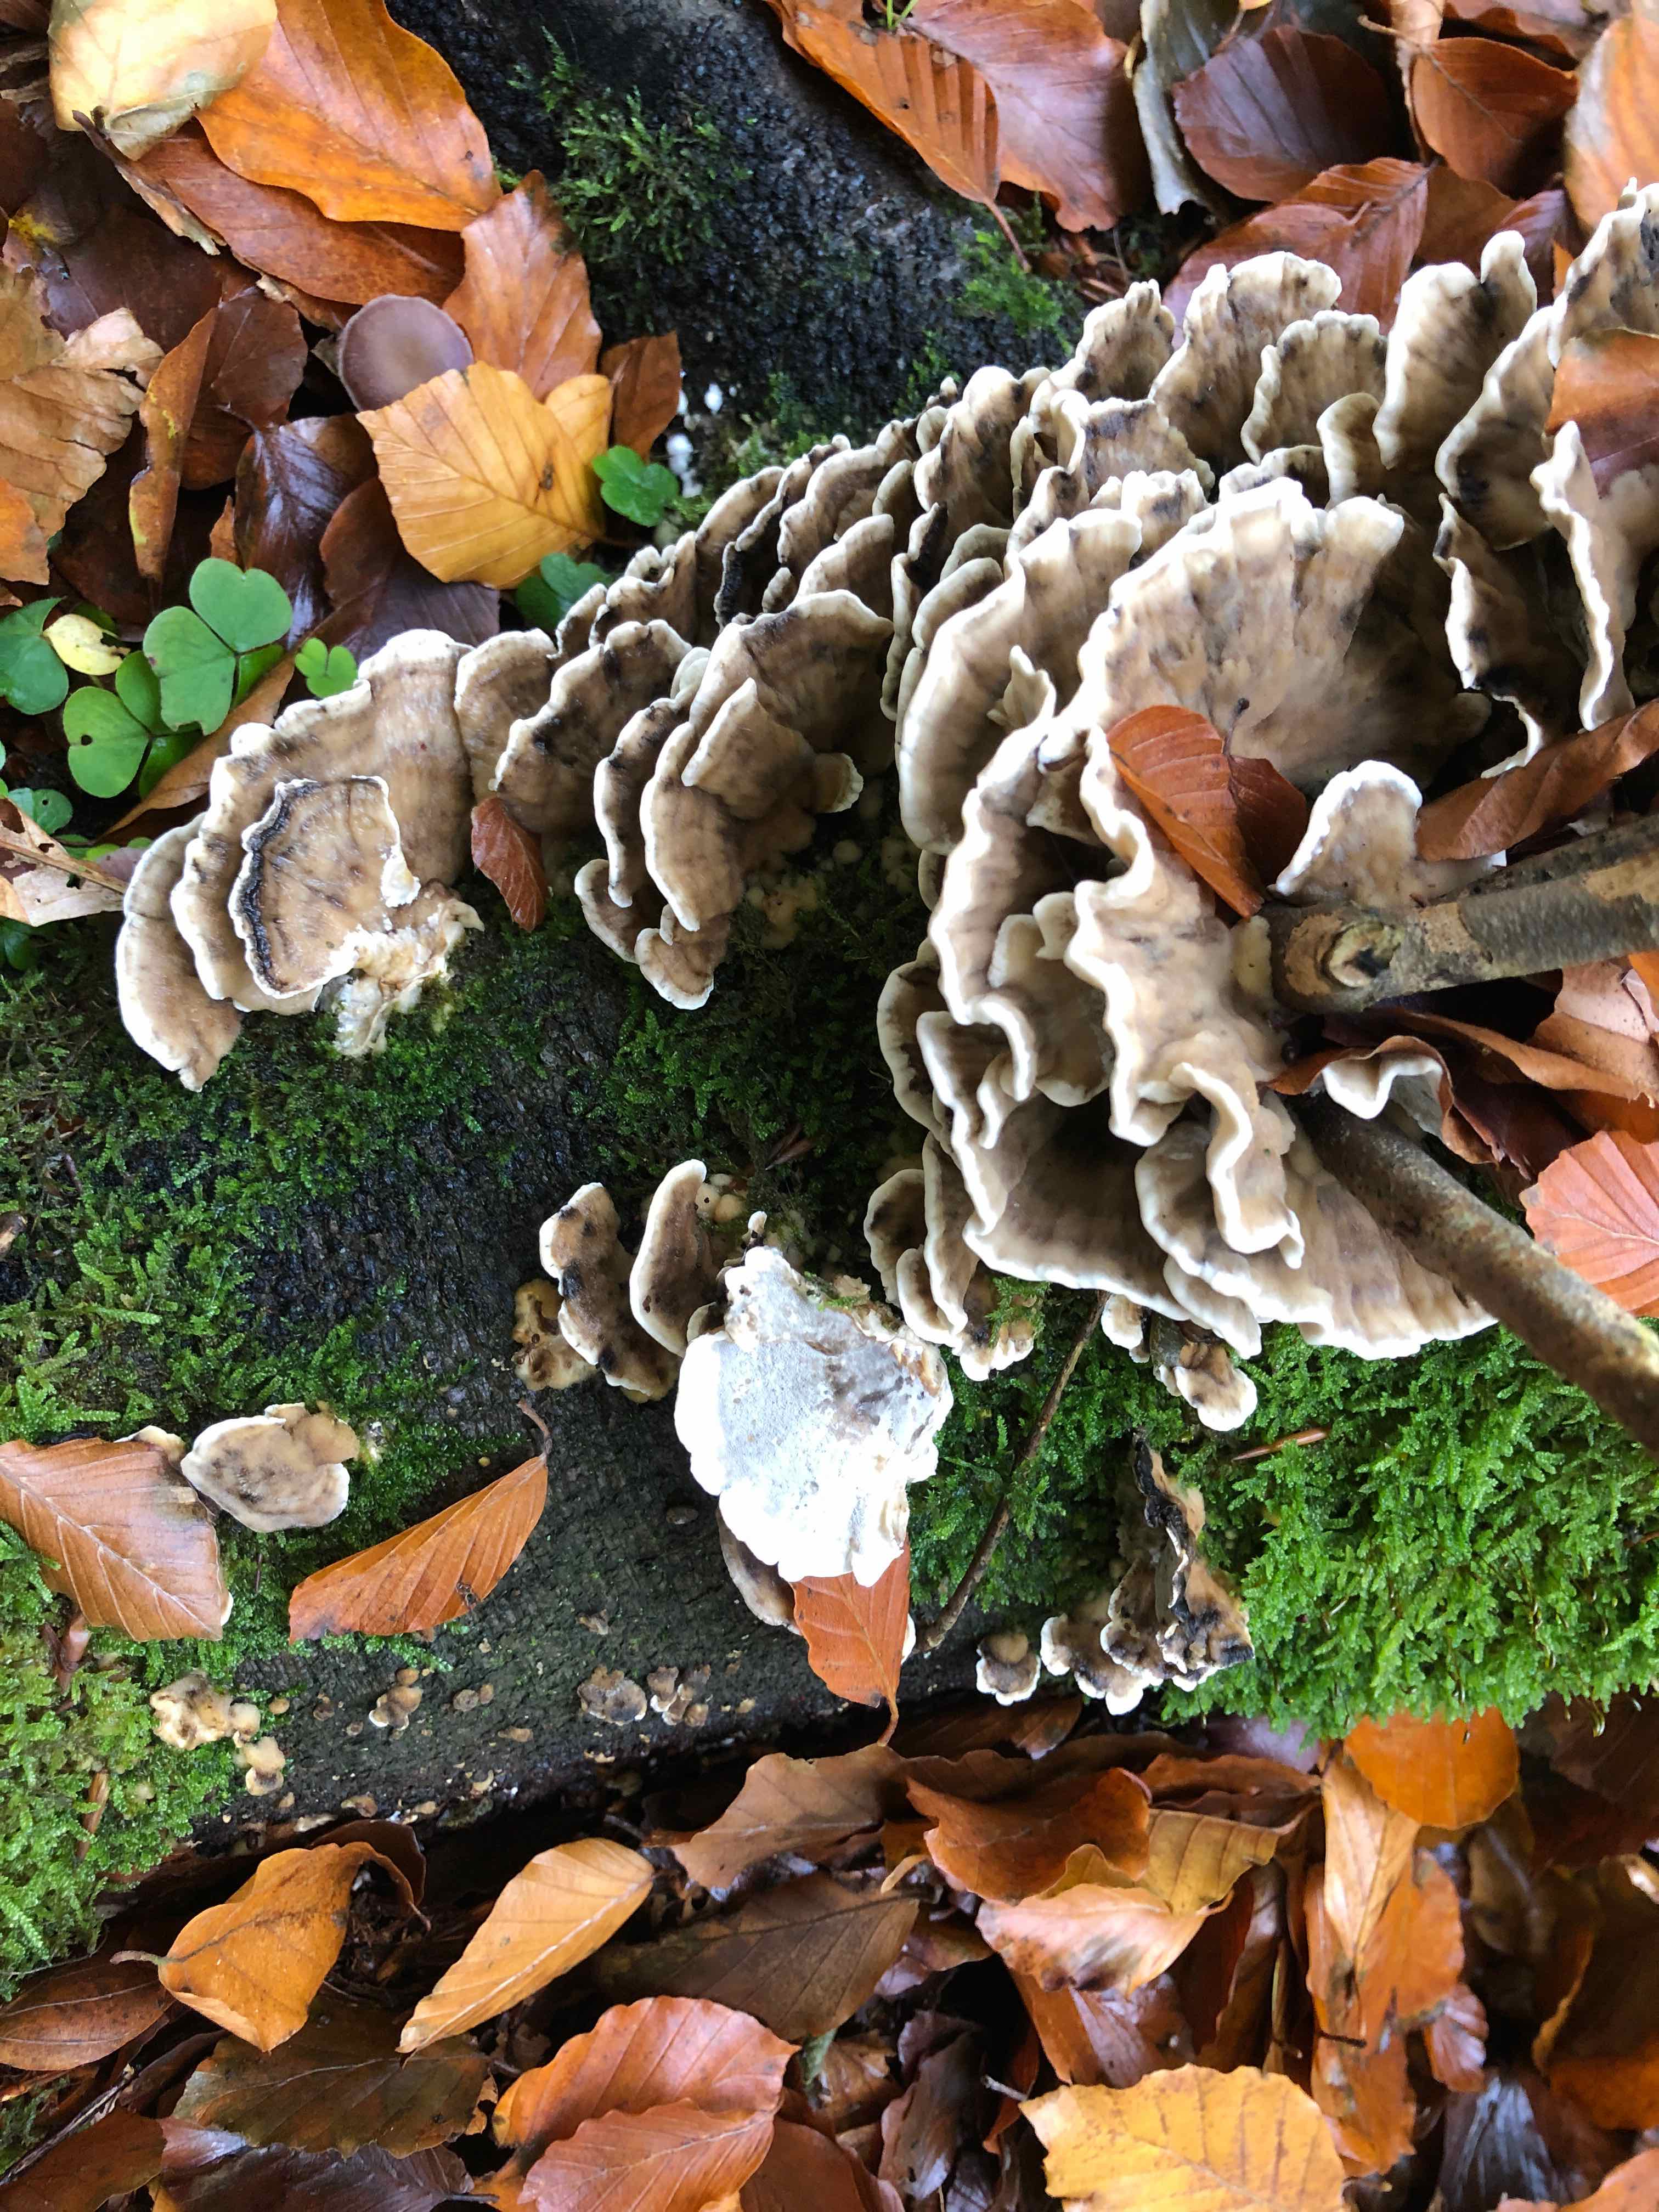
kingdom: Fungi
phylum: Basidiomycota
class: Agaricomycetes
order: Polyporales
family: Phanerochaetaceae
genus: Bjerkandera
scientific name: Bjerkandera adusta
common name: sveden sodporesvamp
